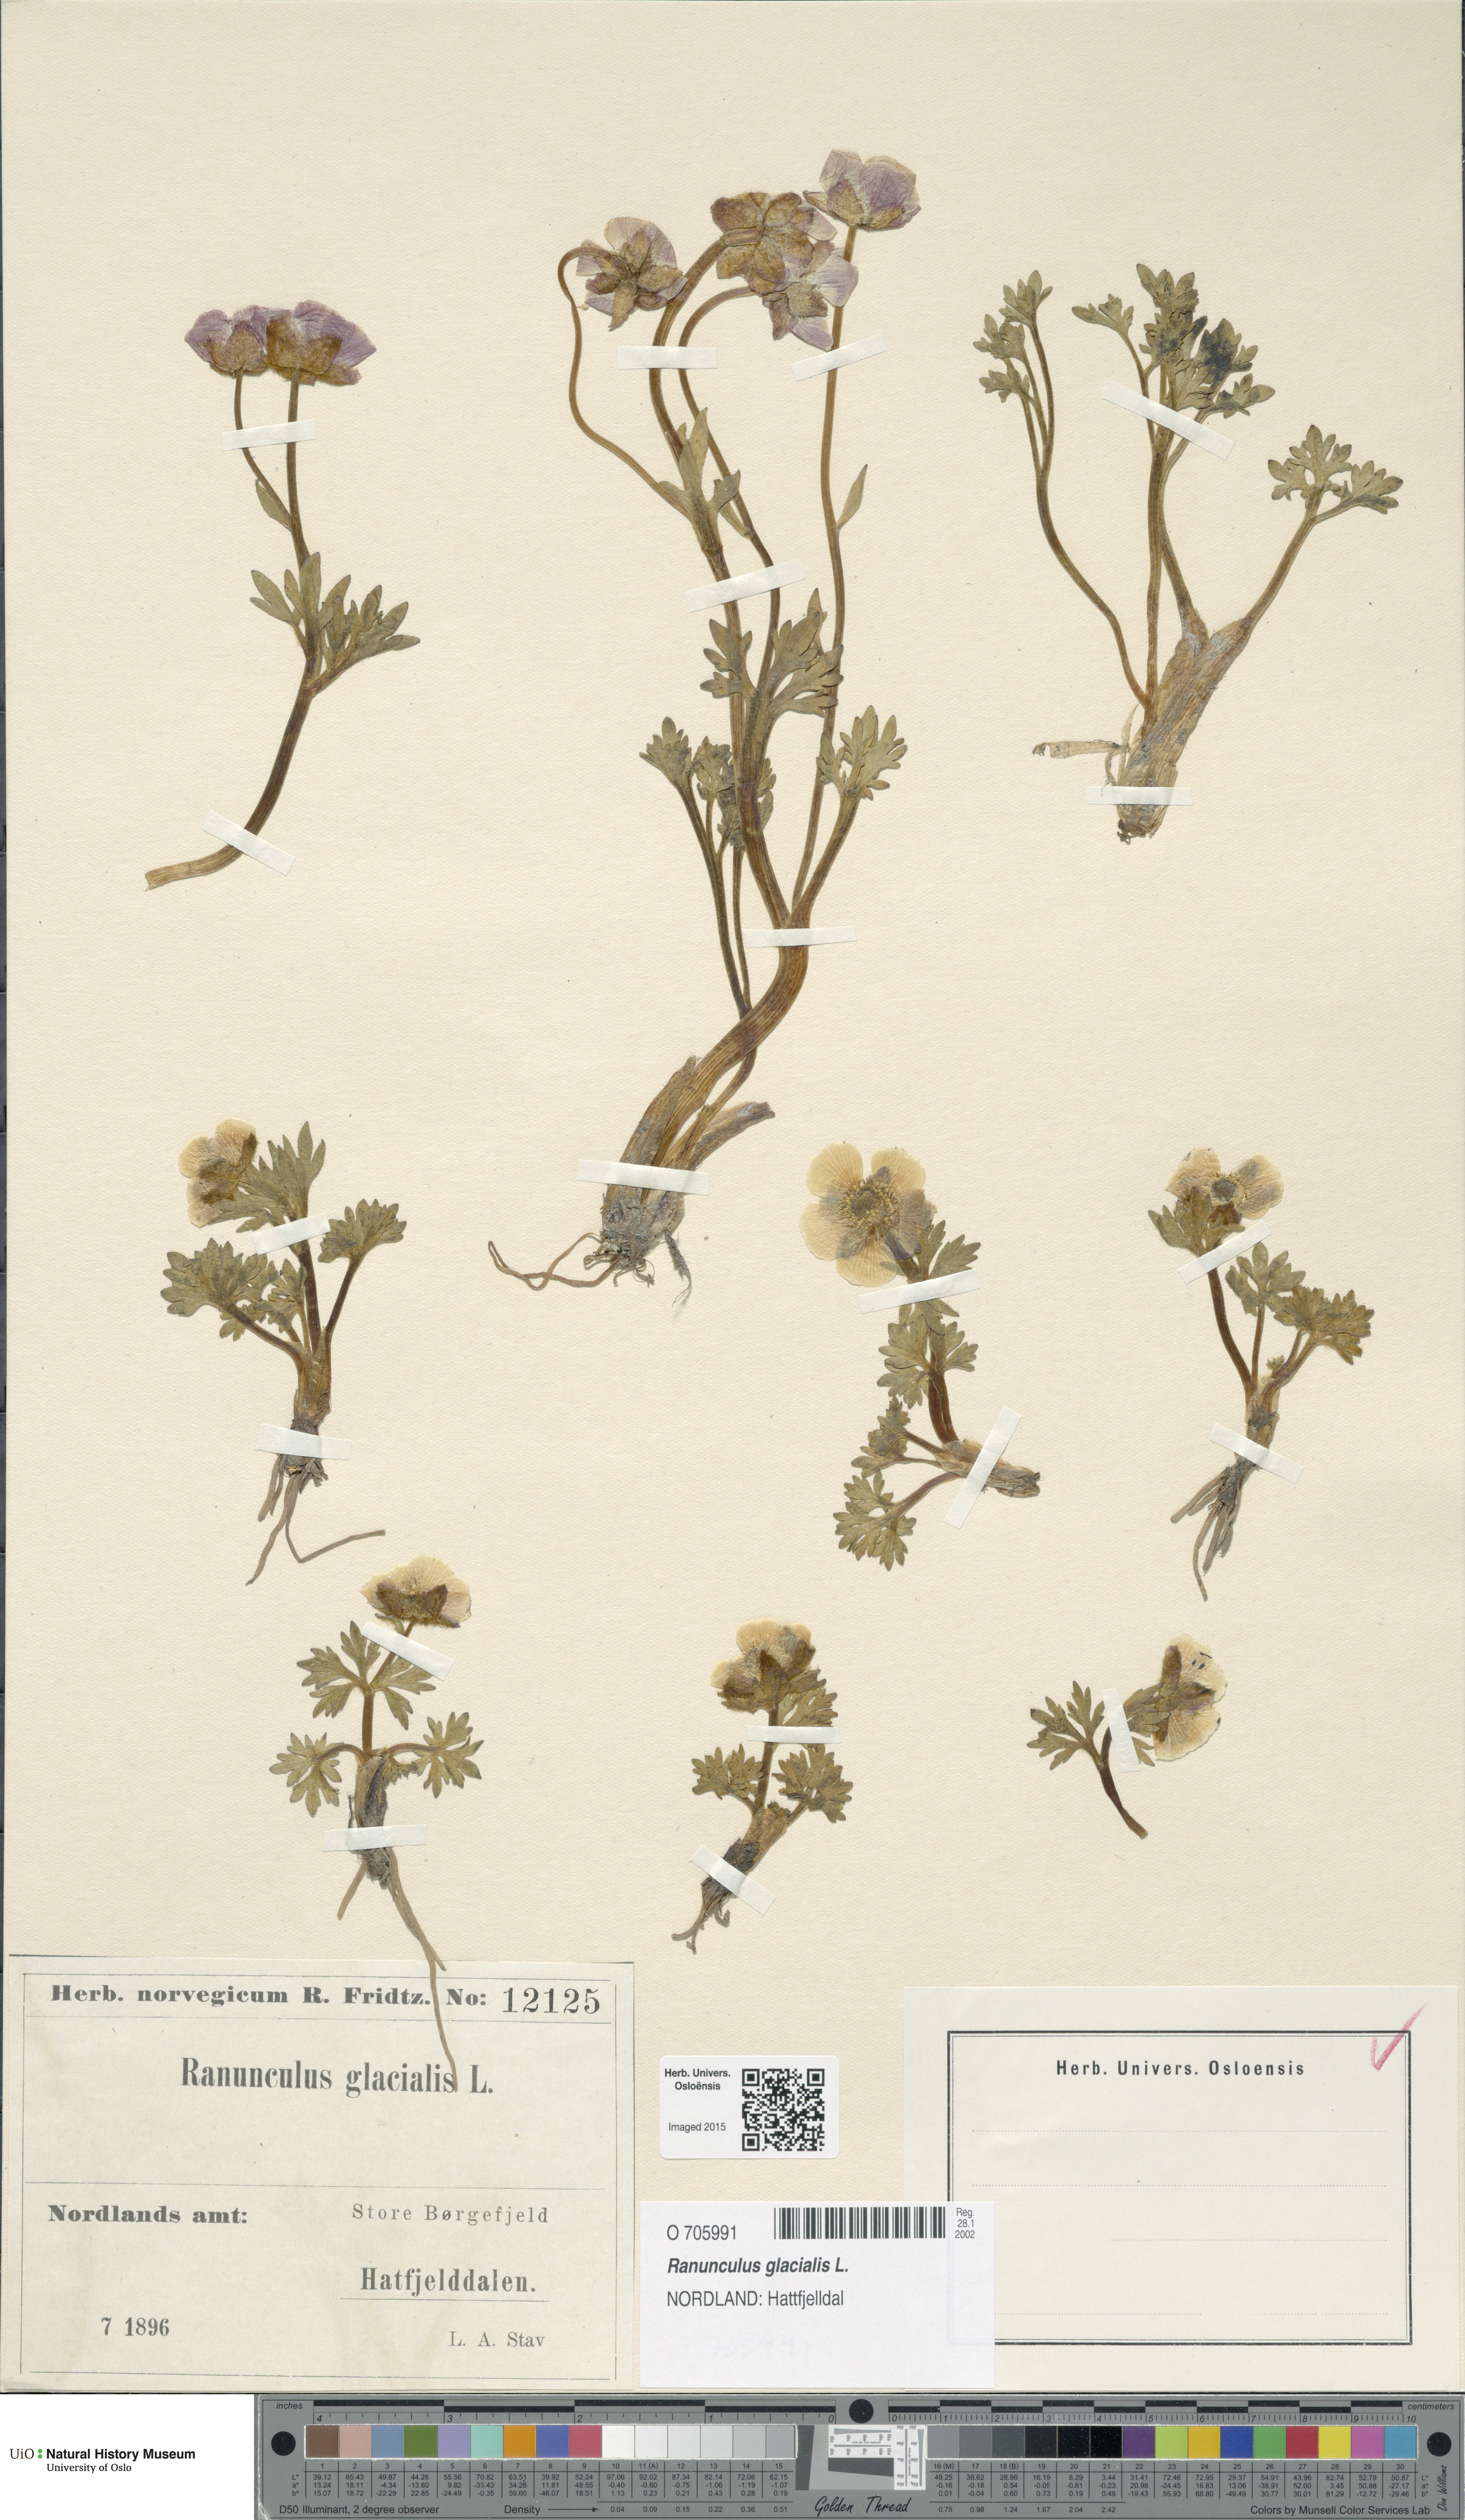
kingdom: Plantae
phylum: Tracheophyta
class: Magnoliopsida
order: Ranunculales
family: Ranunculaceae
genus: Ranunculus
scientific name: Ranunculus glacialis
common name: Glacier buttercup
